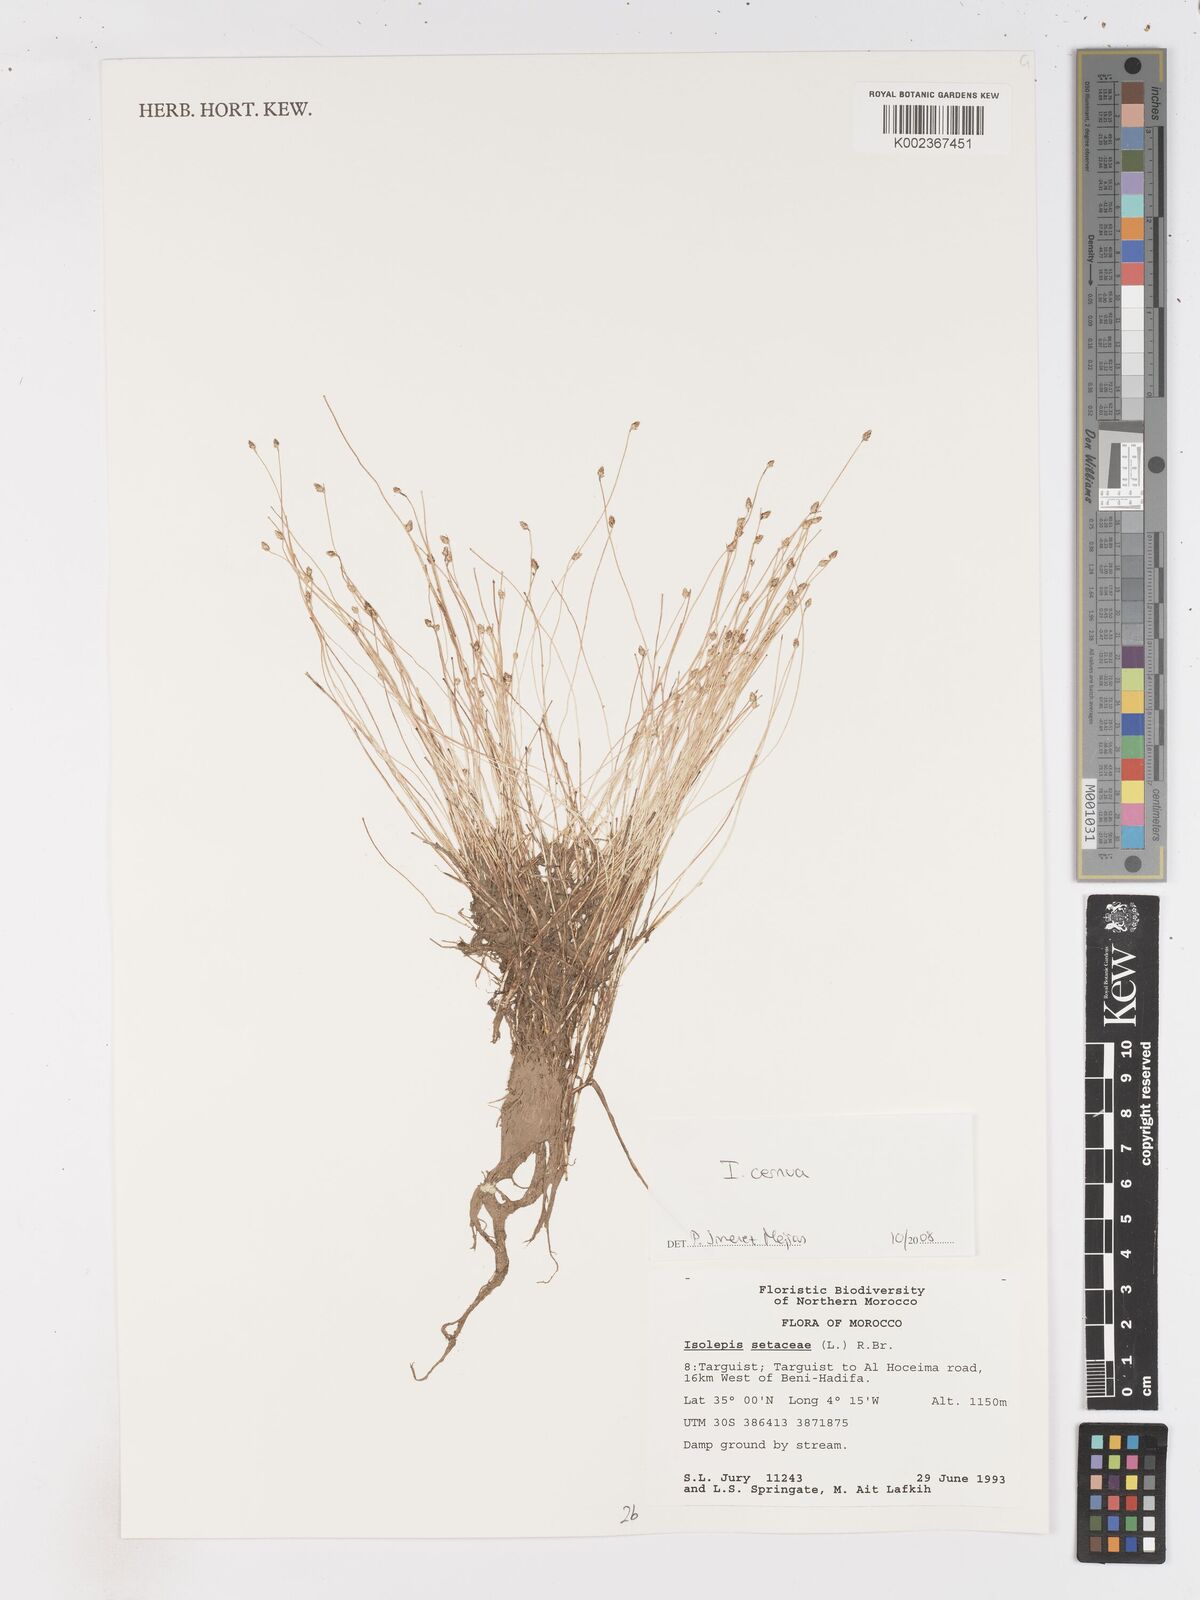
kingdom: Plantae
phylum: Tracheophyta
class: Liliopsida
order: Poales
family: Cyperaceae
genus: Isolepis
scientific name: Isolepis cernua
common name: Slender club-rush
